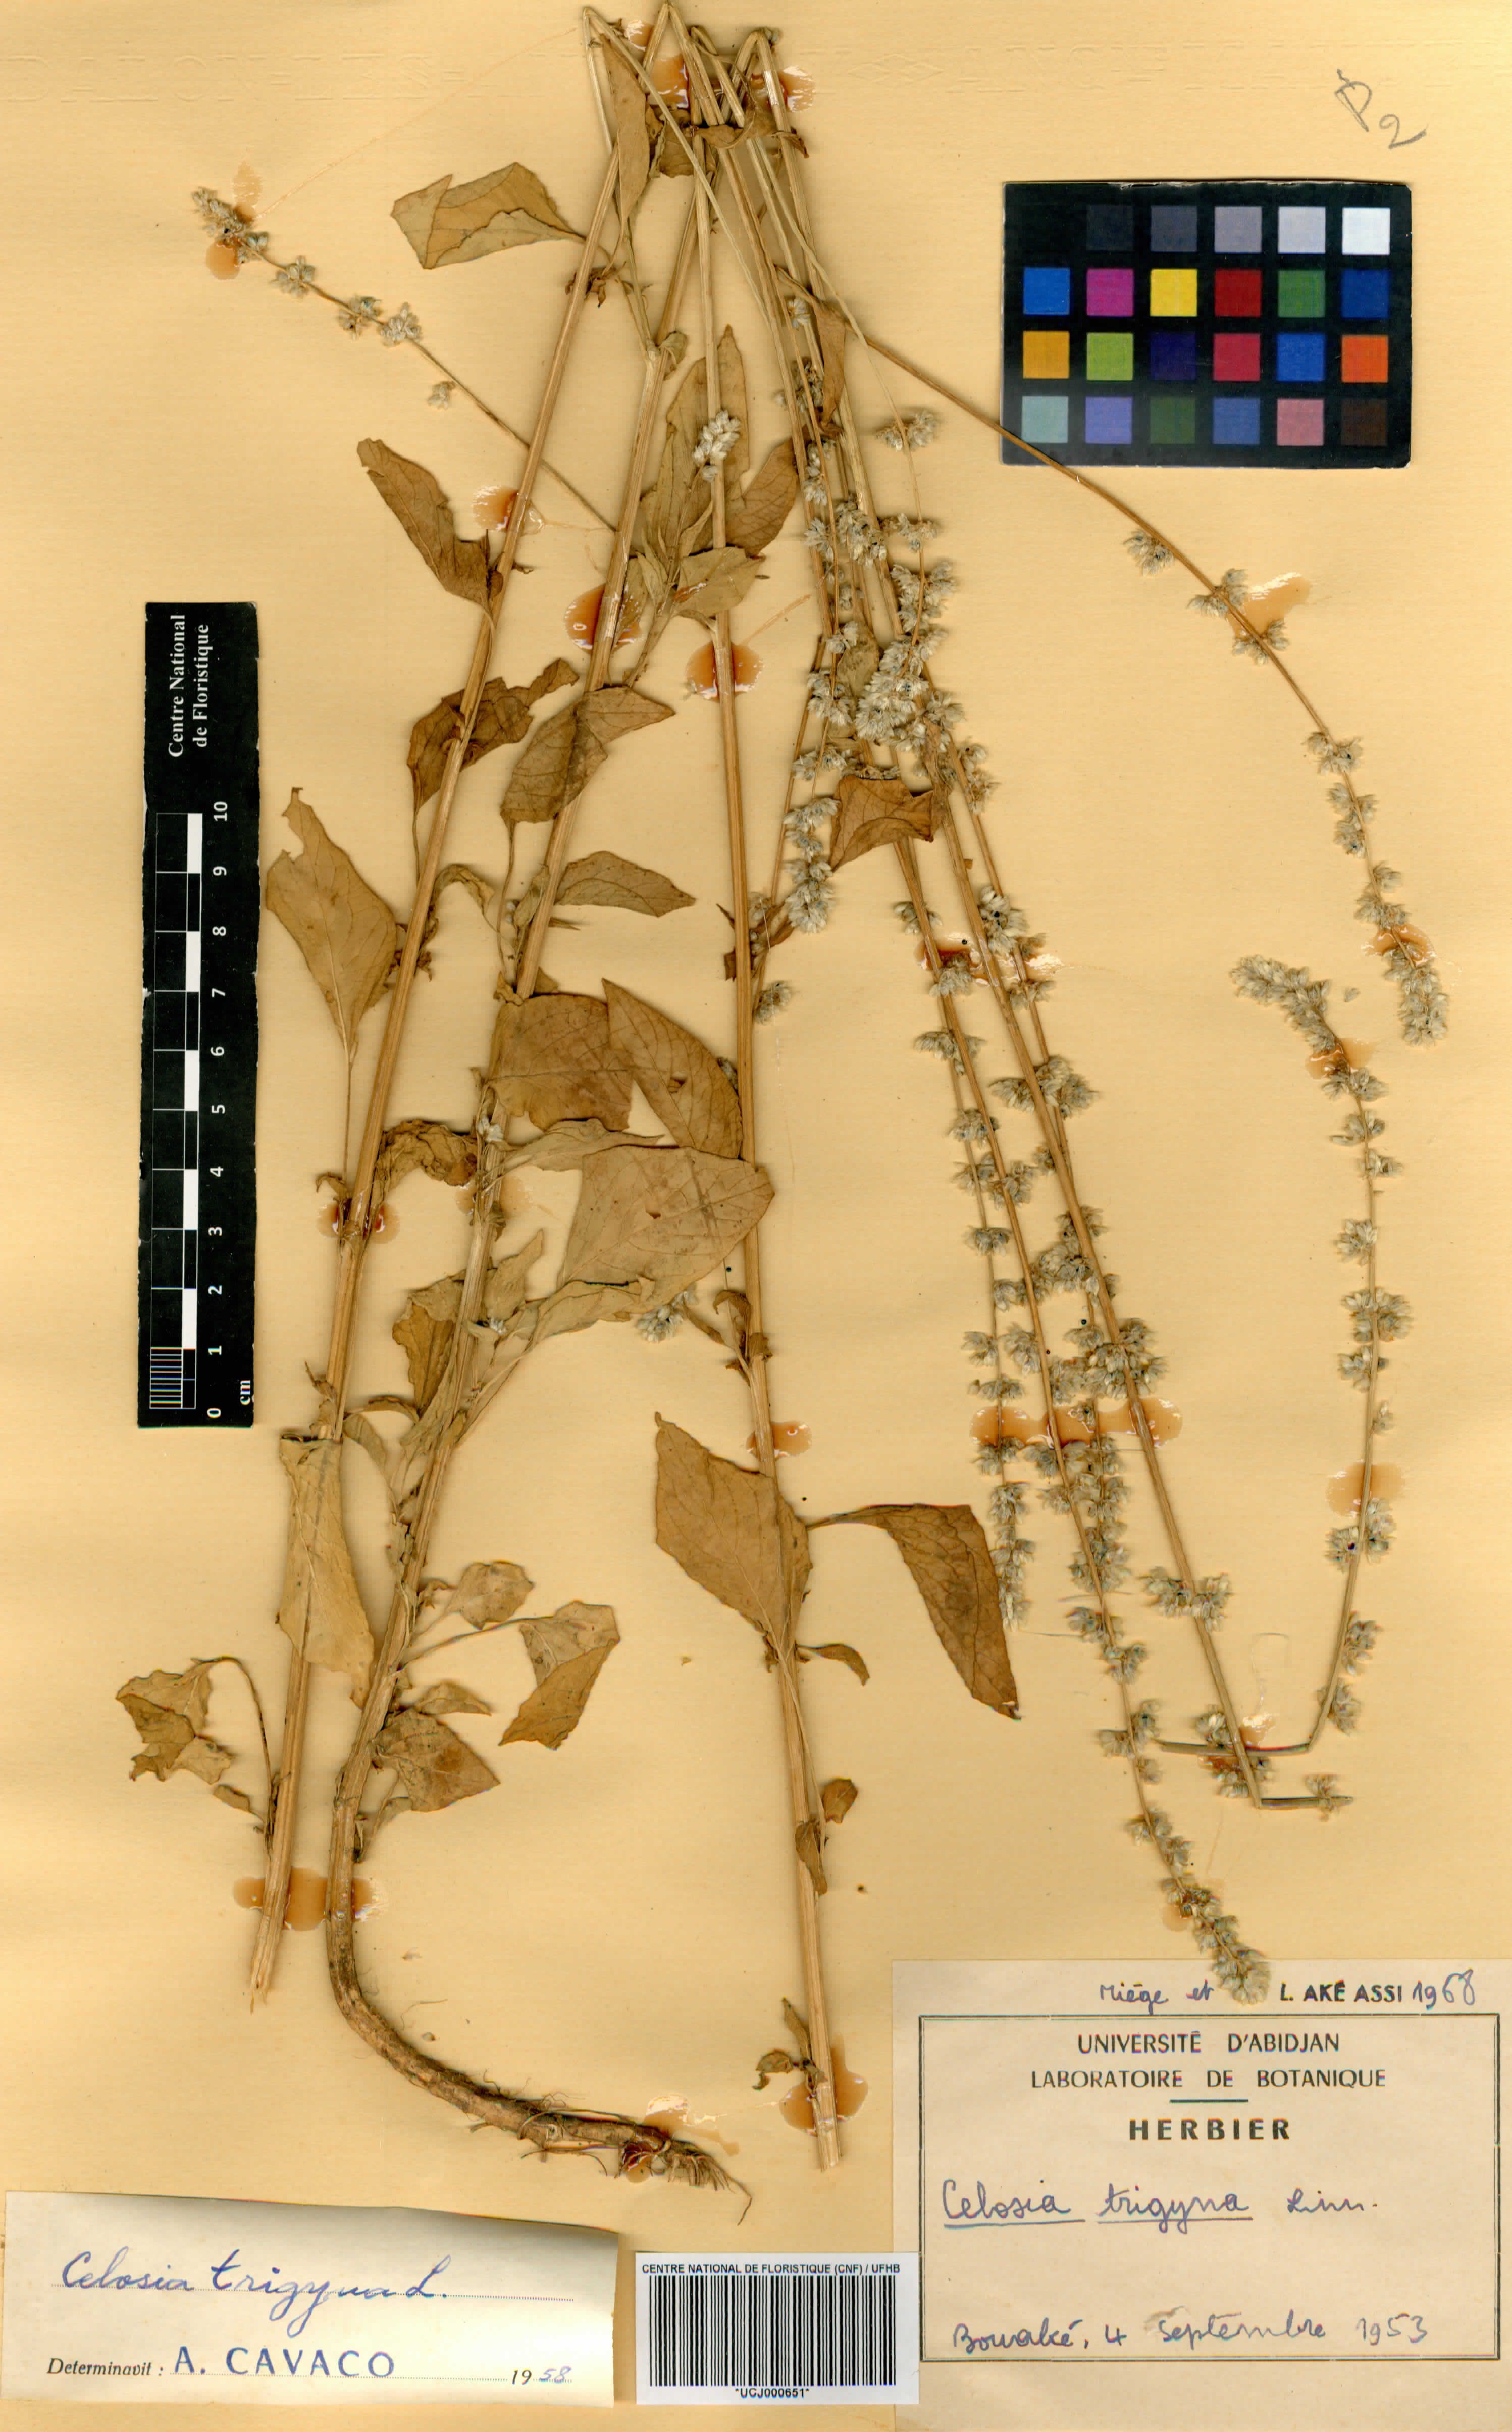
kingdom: Plantae
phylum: Tracheophyta
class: Magnoliopsida
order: Caryophyllales
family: Amaranthaceae
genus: Celosia
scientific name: Celosia trigyna
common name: Woolflower
